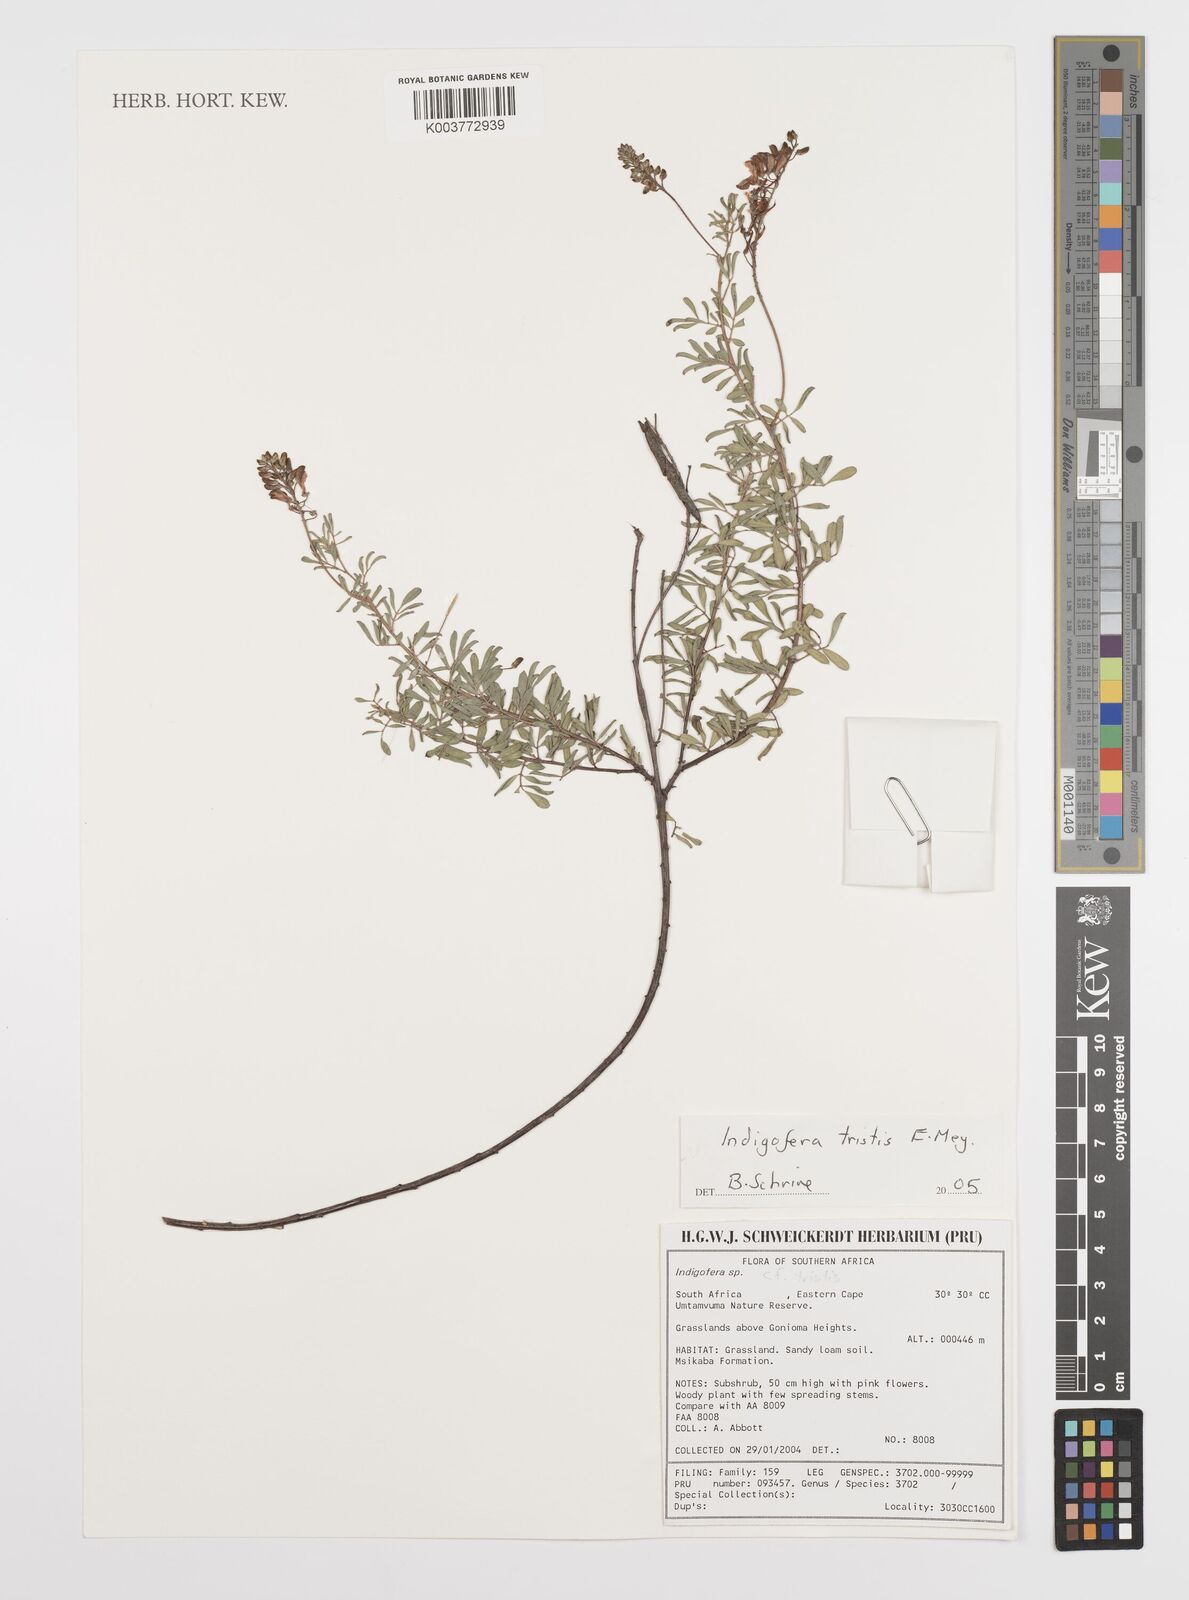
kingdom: Plantae
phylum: Tracheophyta
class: Magnoliopsida
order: Fabales
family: Fabaceae
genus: Indigofera
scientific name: Indigofera
